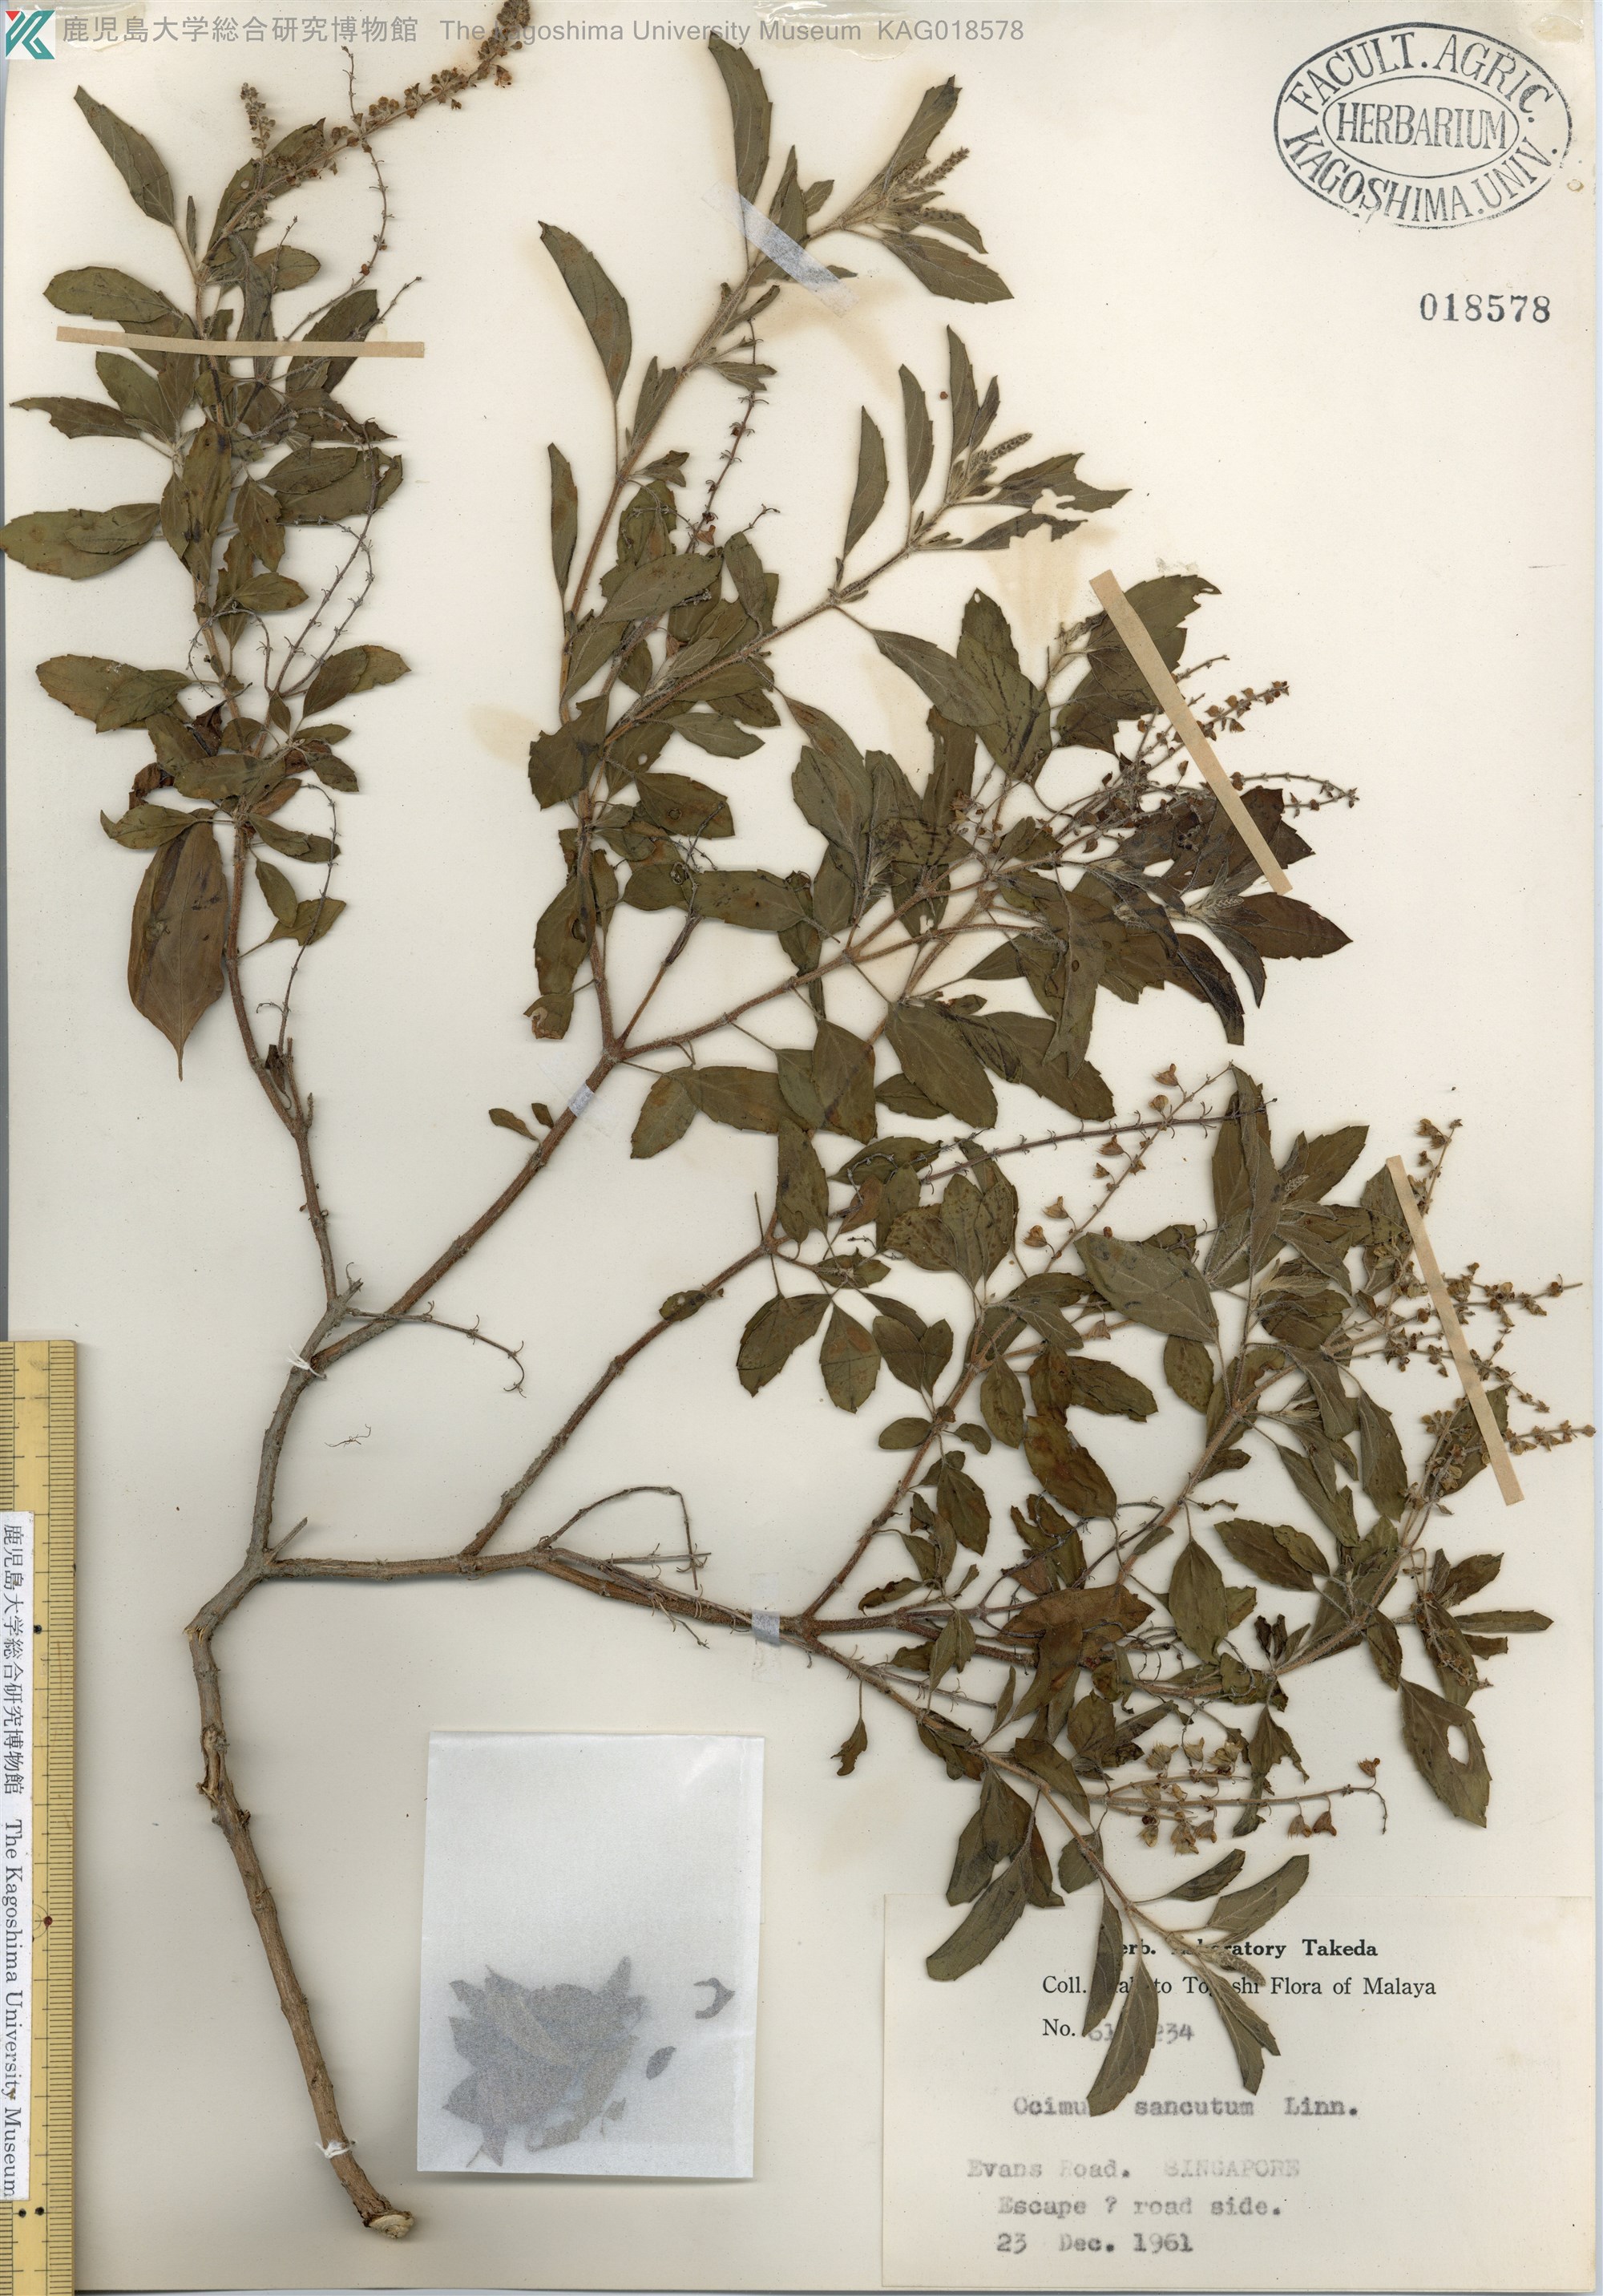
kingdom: Plantae
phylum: Tracheophyta
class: Magnoliopsida
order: Lamiales
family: Lamiaceae
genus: Ocimum
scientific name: Ocimum basilicum
